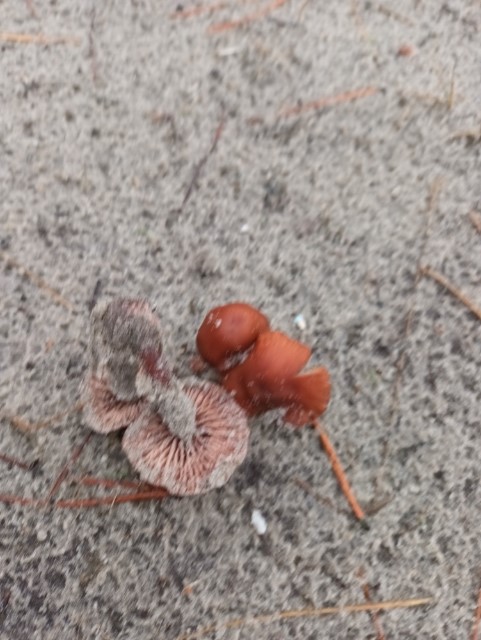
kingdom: Fungi
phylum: Basidiomycota
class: Agaricomycetes
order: Agaricales
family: Hydnangiaceae
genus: Laccaria
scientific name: Laccaria
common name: ametysthat
